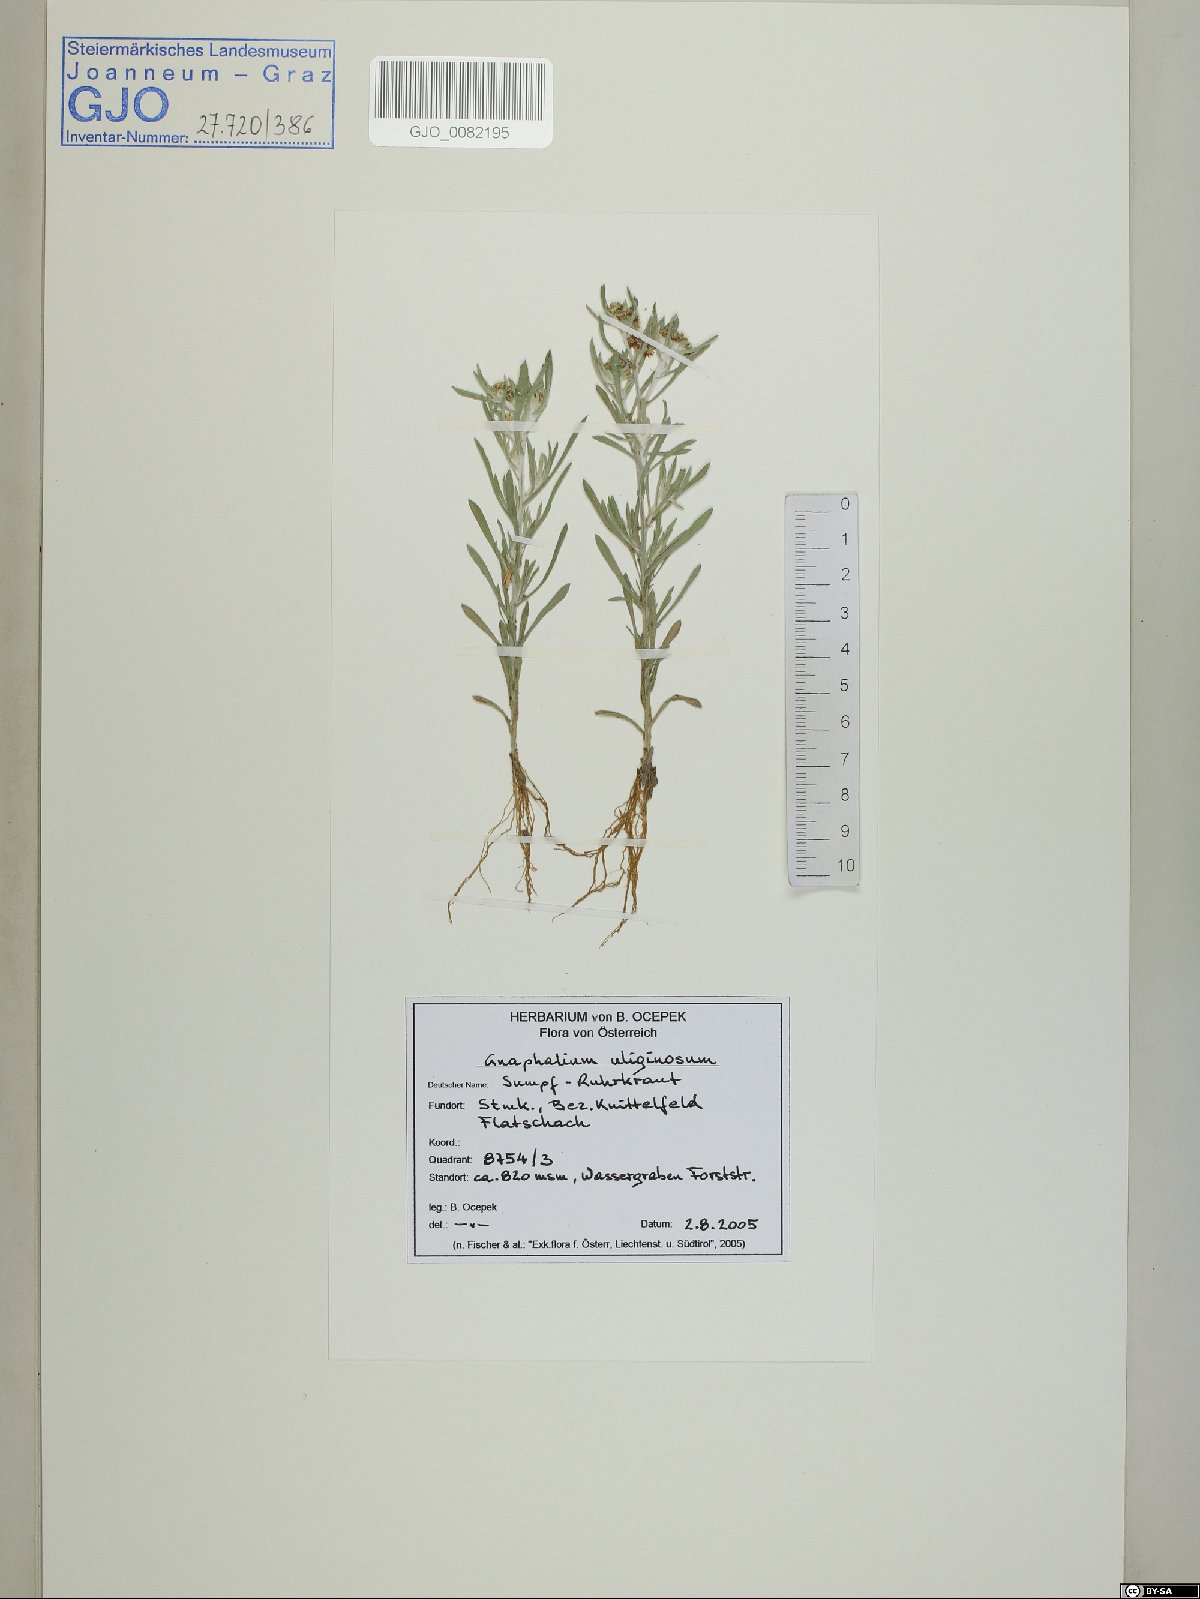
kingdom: Plantae
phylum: Tracheophyta
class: Magnoliopsida
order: Asterales
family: Asteraceae
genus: Gnaphalium
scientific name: Gnaphalium uliginosum
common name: Marsh cudweed
